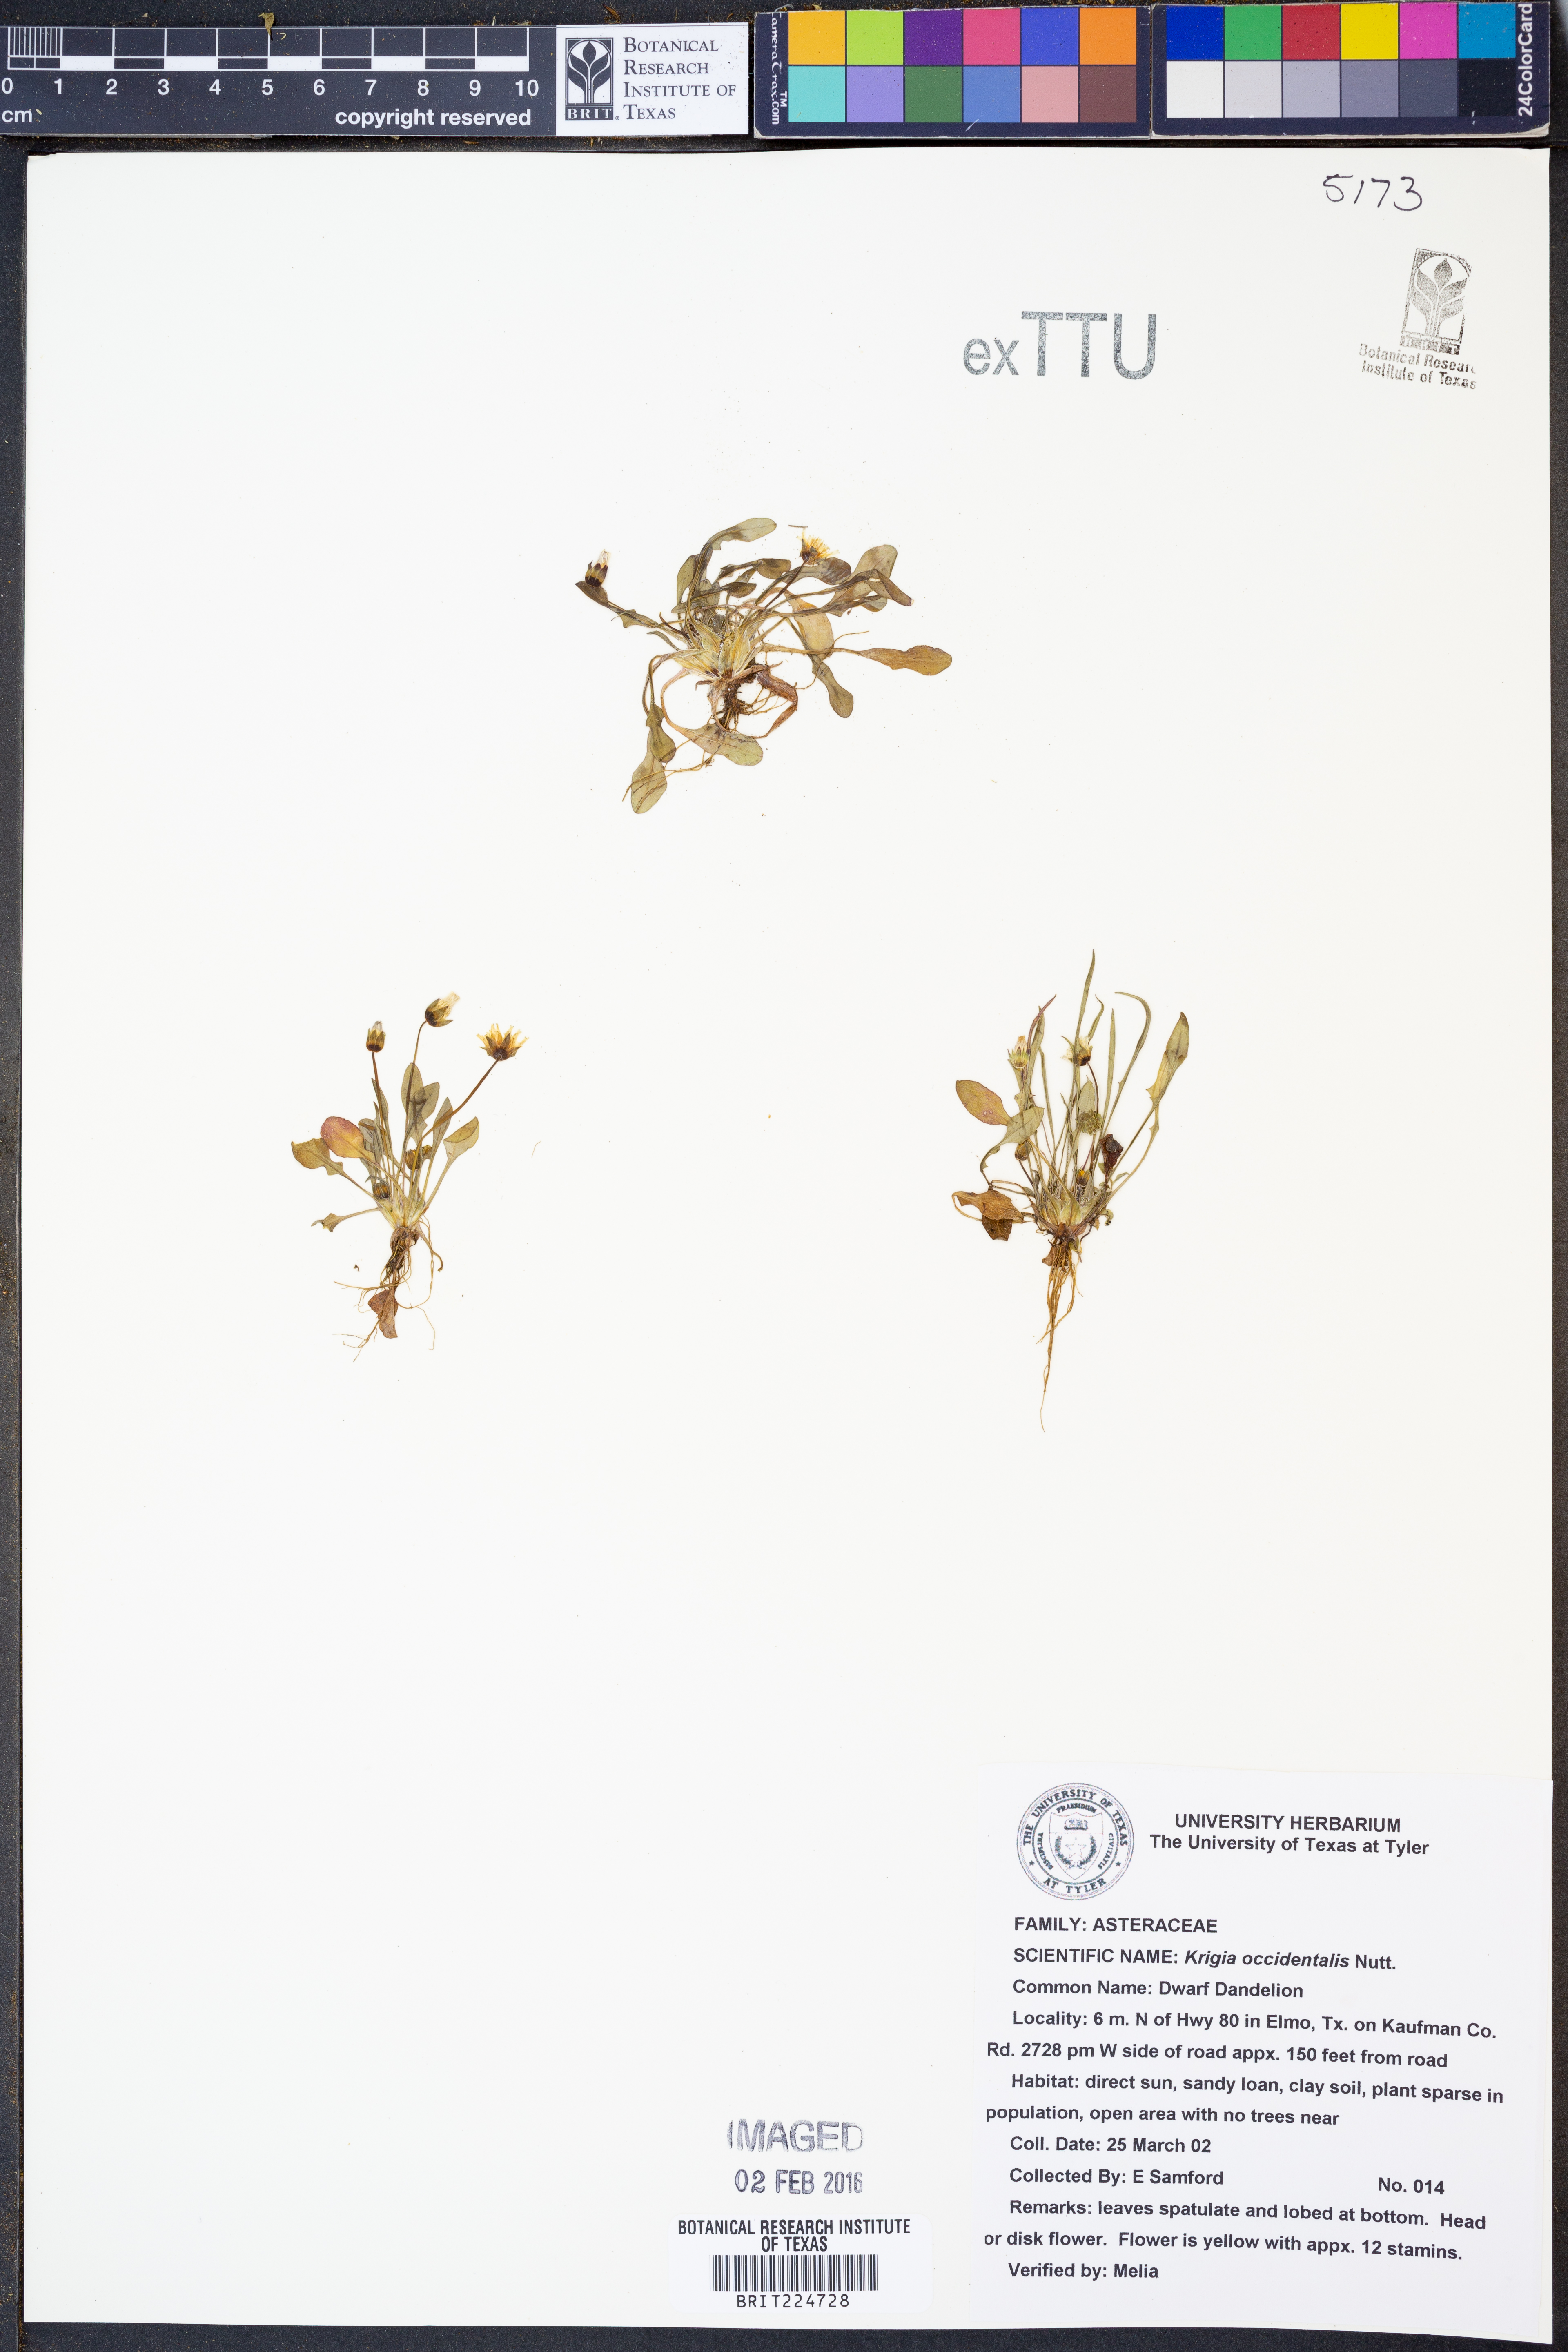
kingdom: Plantae
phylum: Tracheophyta
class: Magnoliopsida
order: Asterales
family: Asteraceae
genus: Krigia
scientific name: Krigia occidentalis
